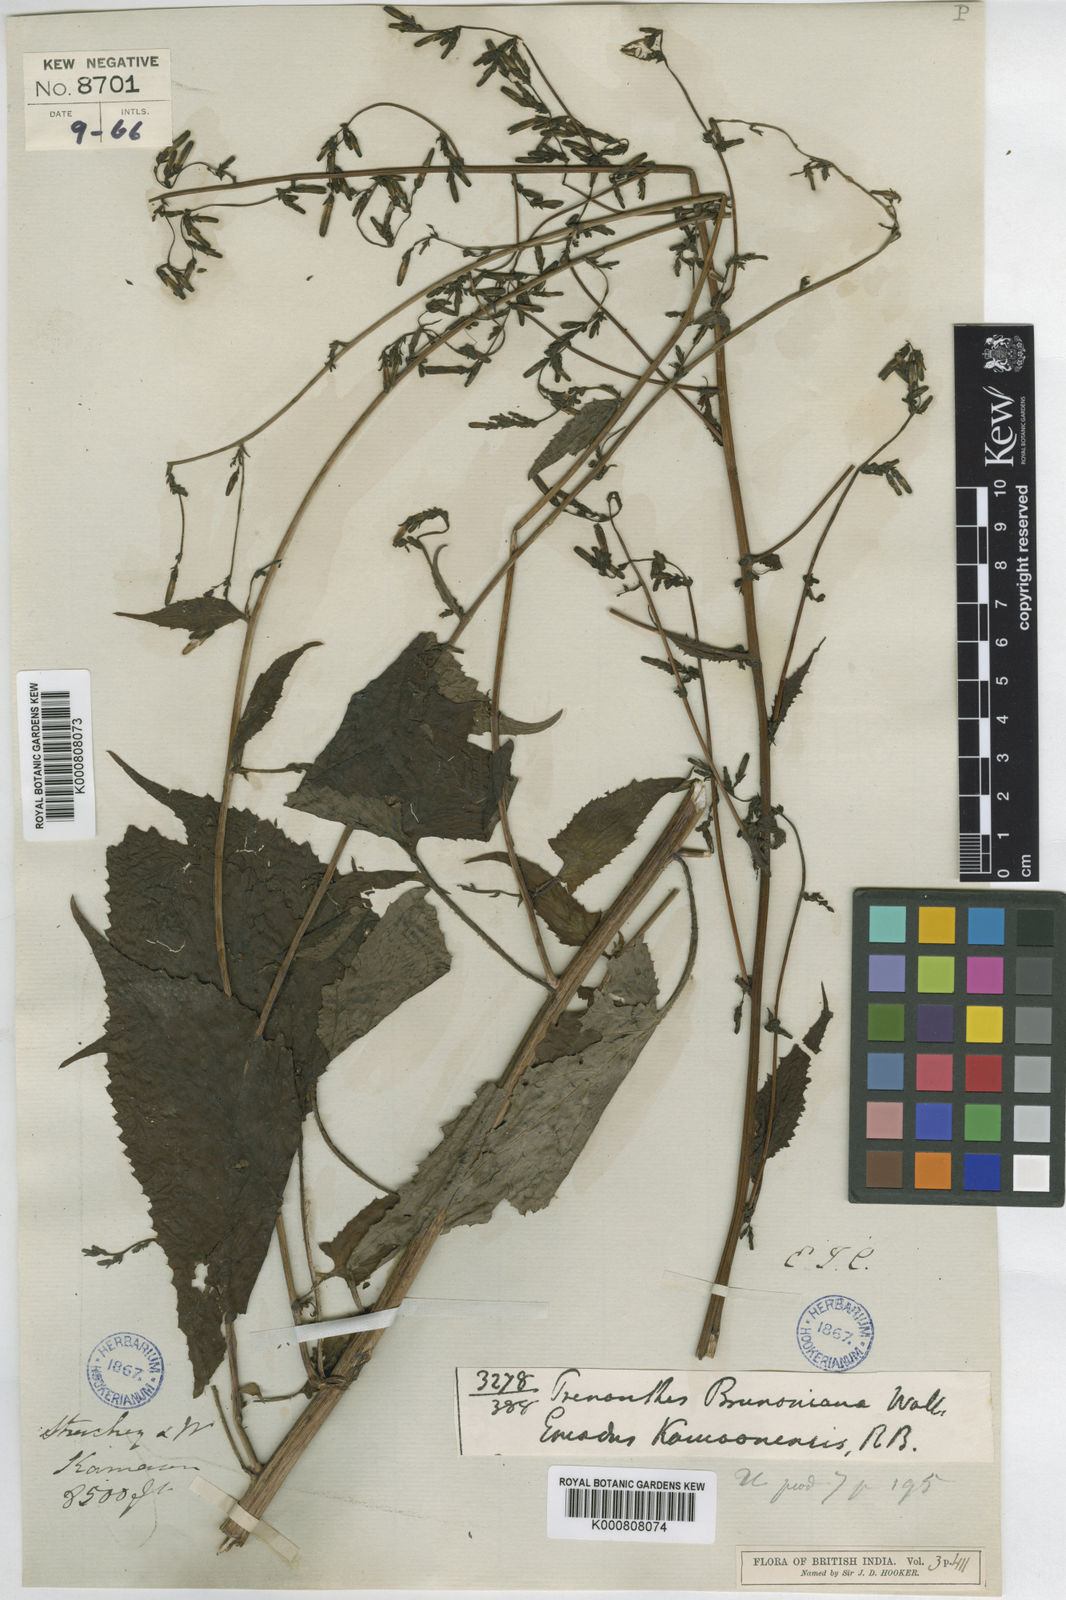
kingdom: Plantae
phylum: Tracheophyta
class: Magnoliopsida
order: Asterales
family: Asteraceae
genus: Melanoseris
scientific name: Melanoseris
